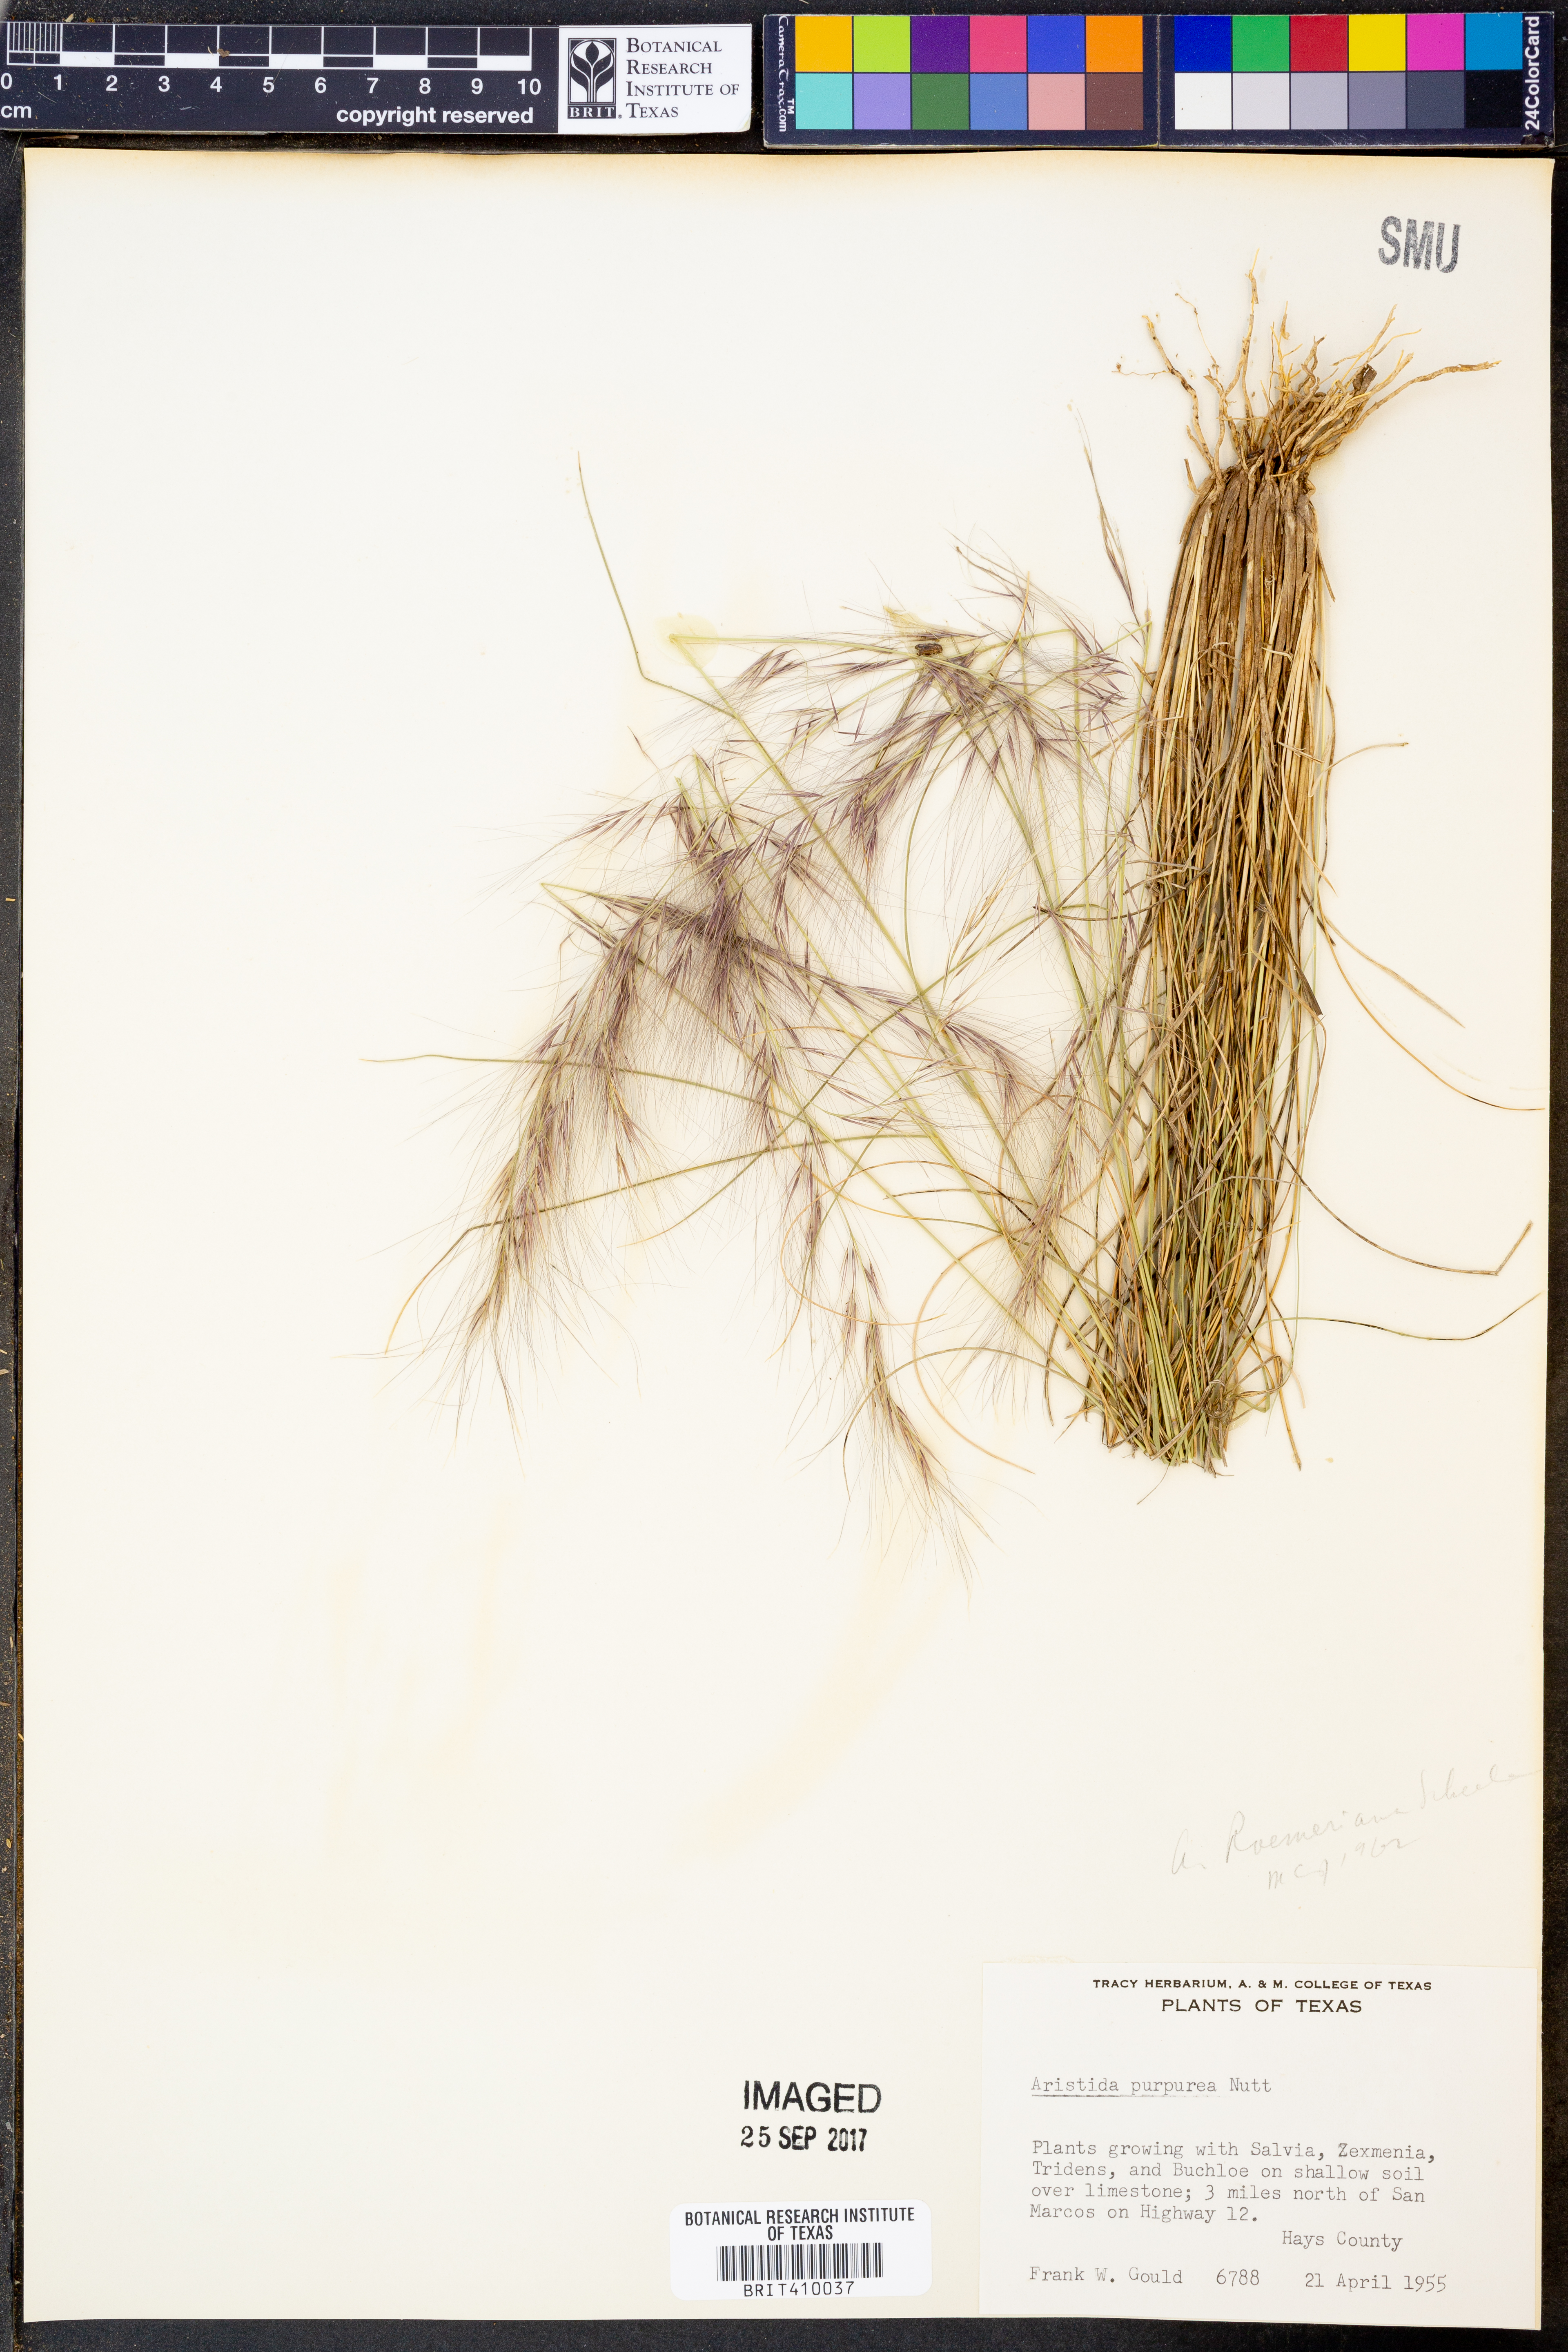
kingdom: Plantae
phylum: Tracheophyta
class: Liliopsida
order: Poales
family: Poaceae
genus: Aristida
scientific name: Aristida purpurea
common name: Purple threeawn
